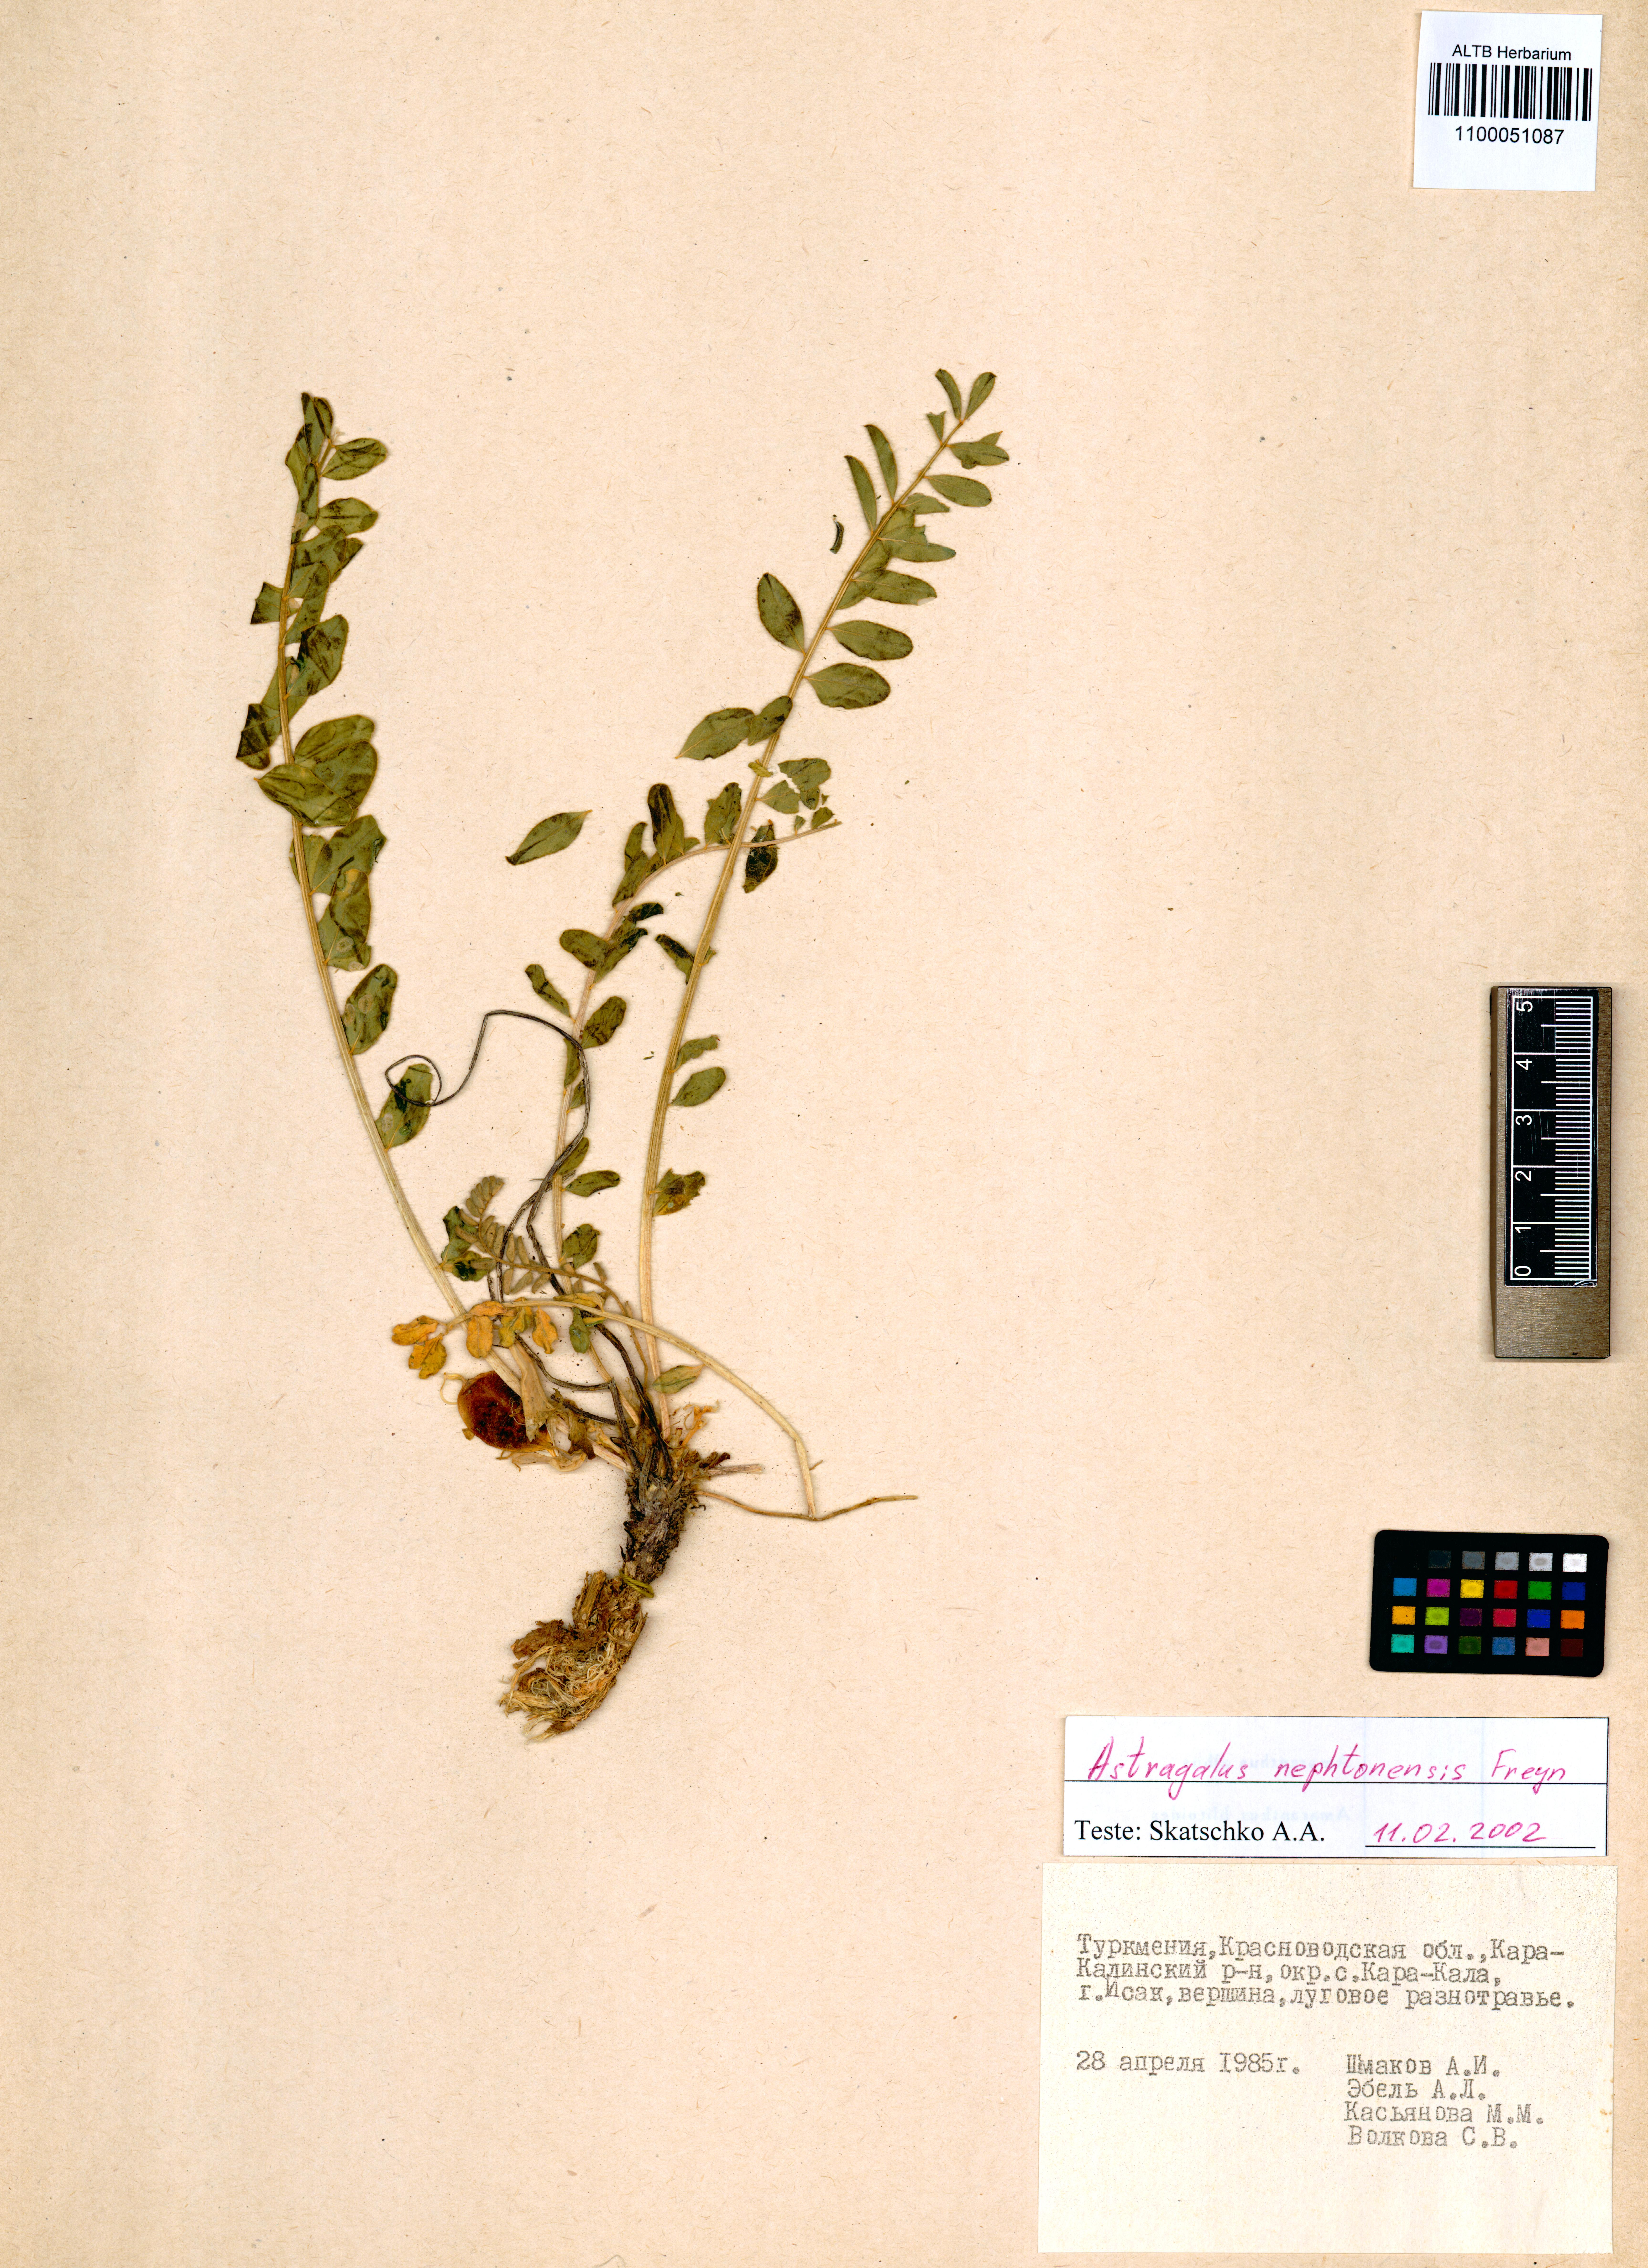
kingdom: Plantae
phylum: Tracheophyta
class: Magnoliopsida
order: Fabales
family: Fabaceae
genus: Astragalus
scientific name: Astragalus nephtonensis
